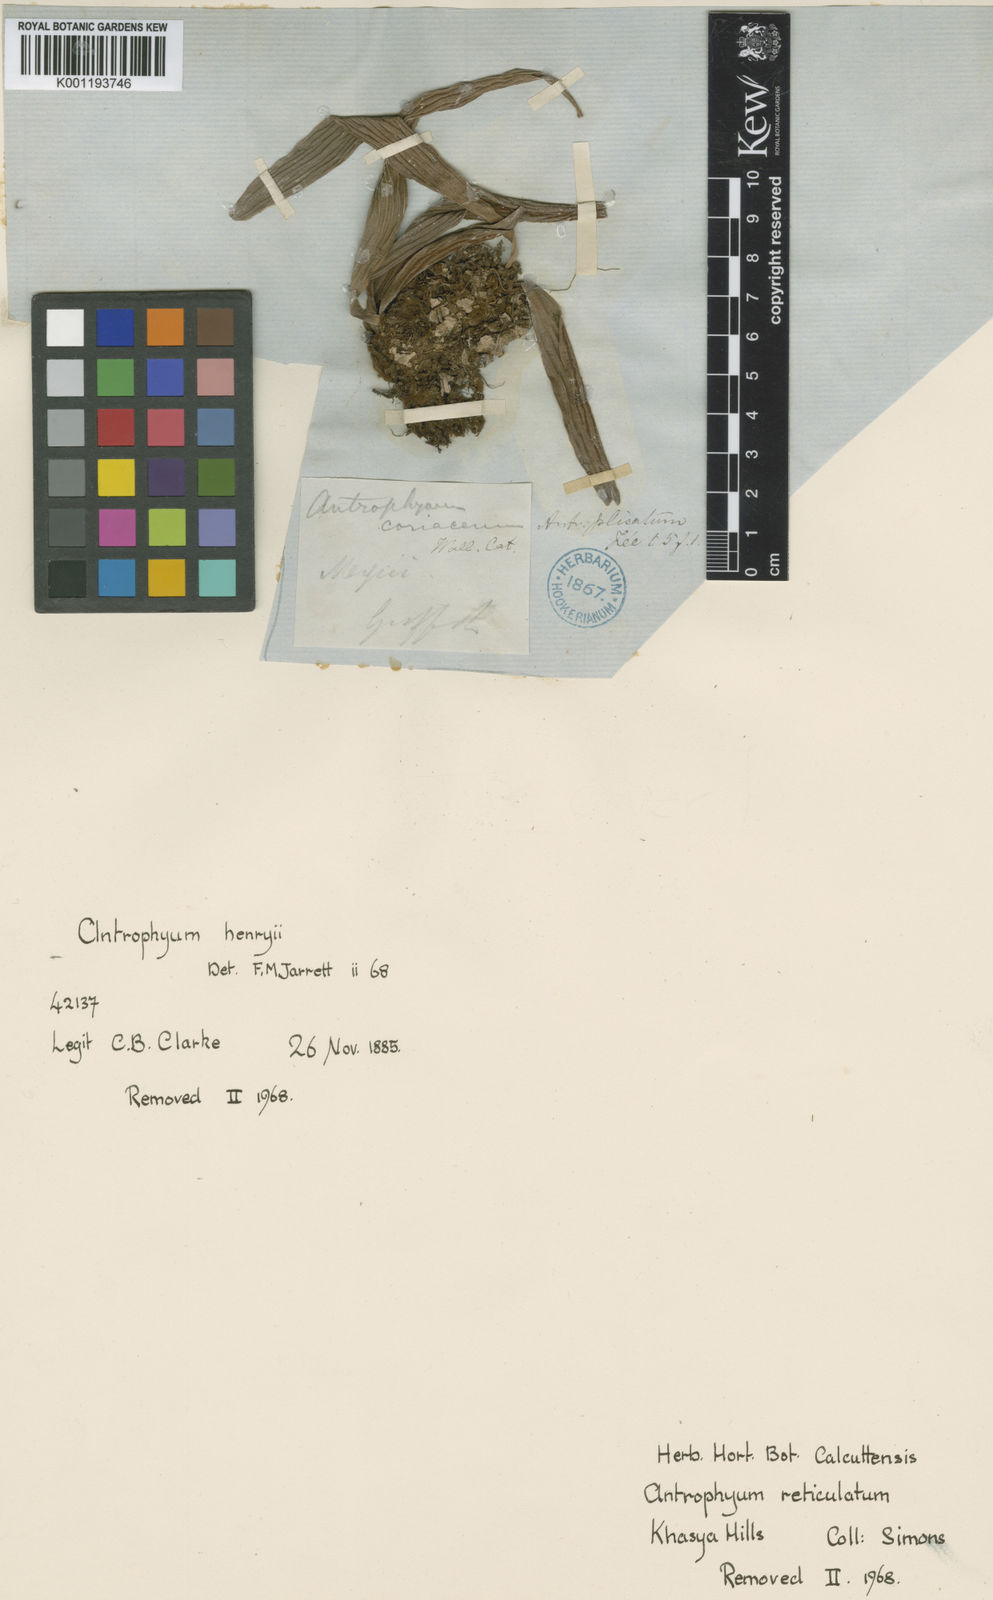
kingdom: Plantae
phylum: Tracheophyta
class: Polypodiopsida
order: Polypodiales
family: Pteridaceae
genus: Antrophyum
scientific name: Antrophyum reticulatum
